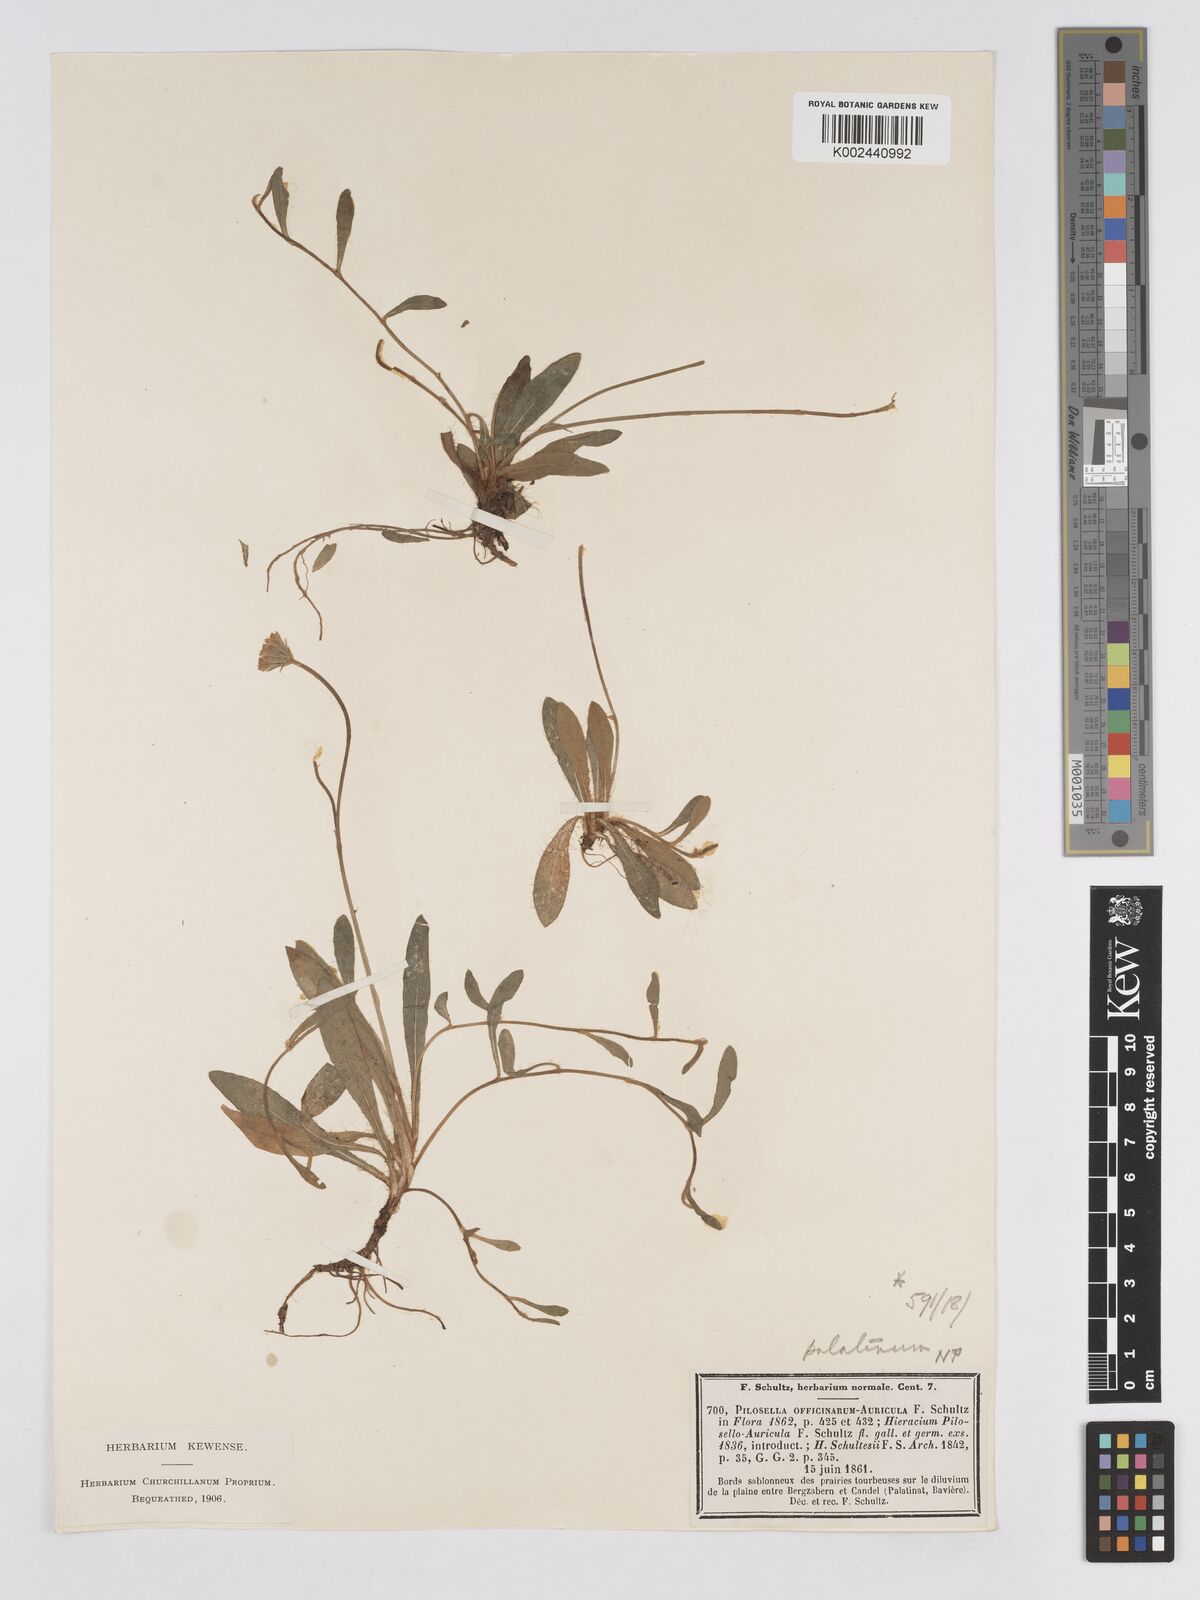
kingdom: Plantae
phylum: Tracheophyta
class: Magnoliopsida
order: Asterales
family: Asteraceae
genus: Pilosella
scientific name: Pilosella schultesii
